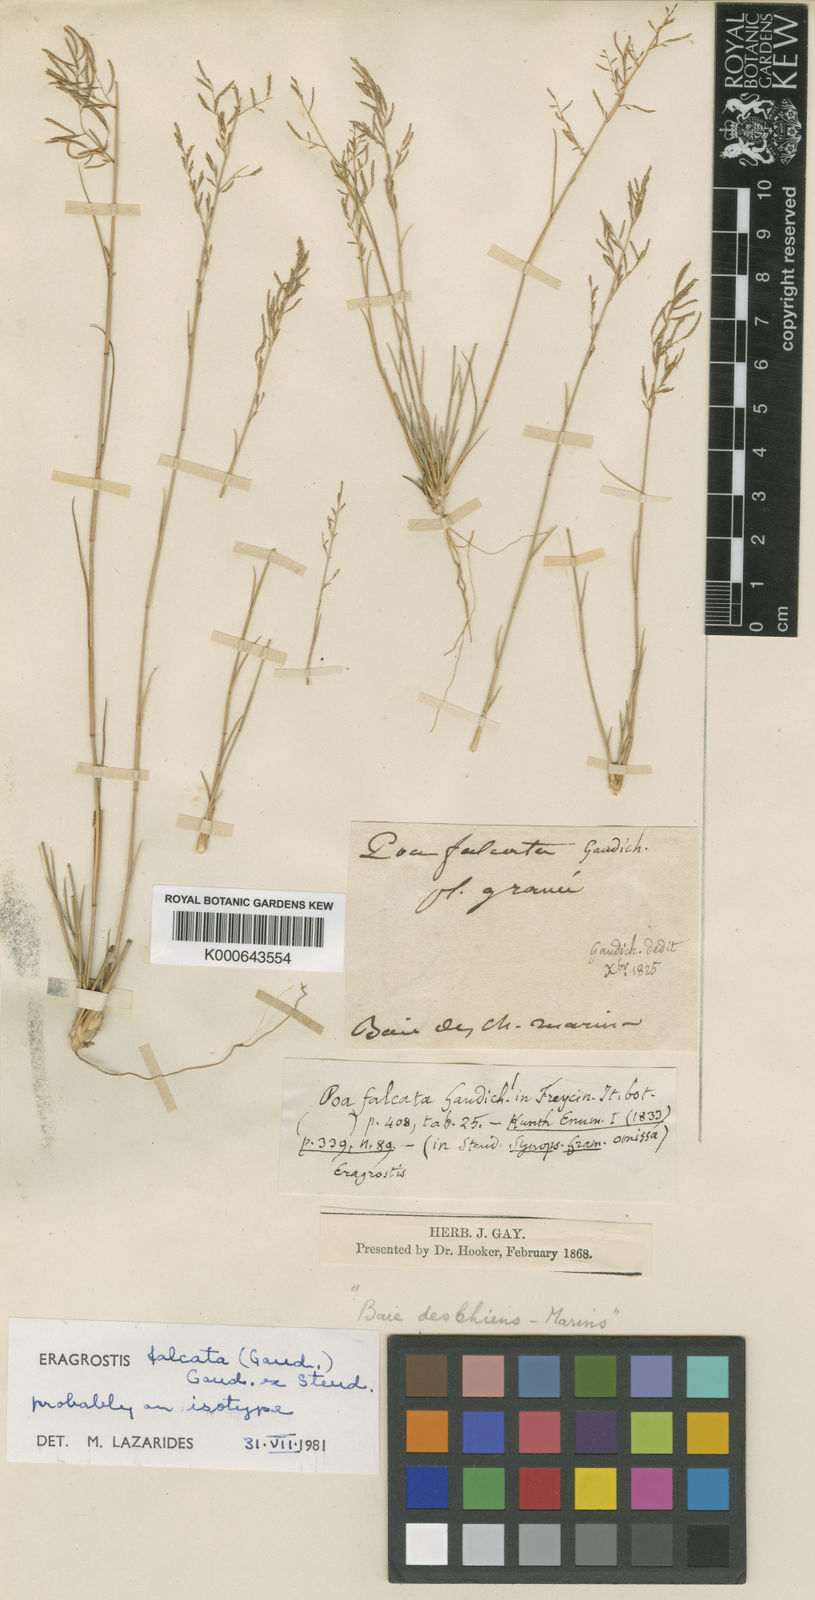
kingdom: Plantae
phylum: Tracheophyta
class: Liliopsida
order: Poales
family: Poaceae
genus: Eragrostis
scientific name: Eragrostis falcata
